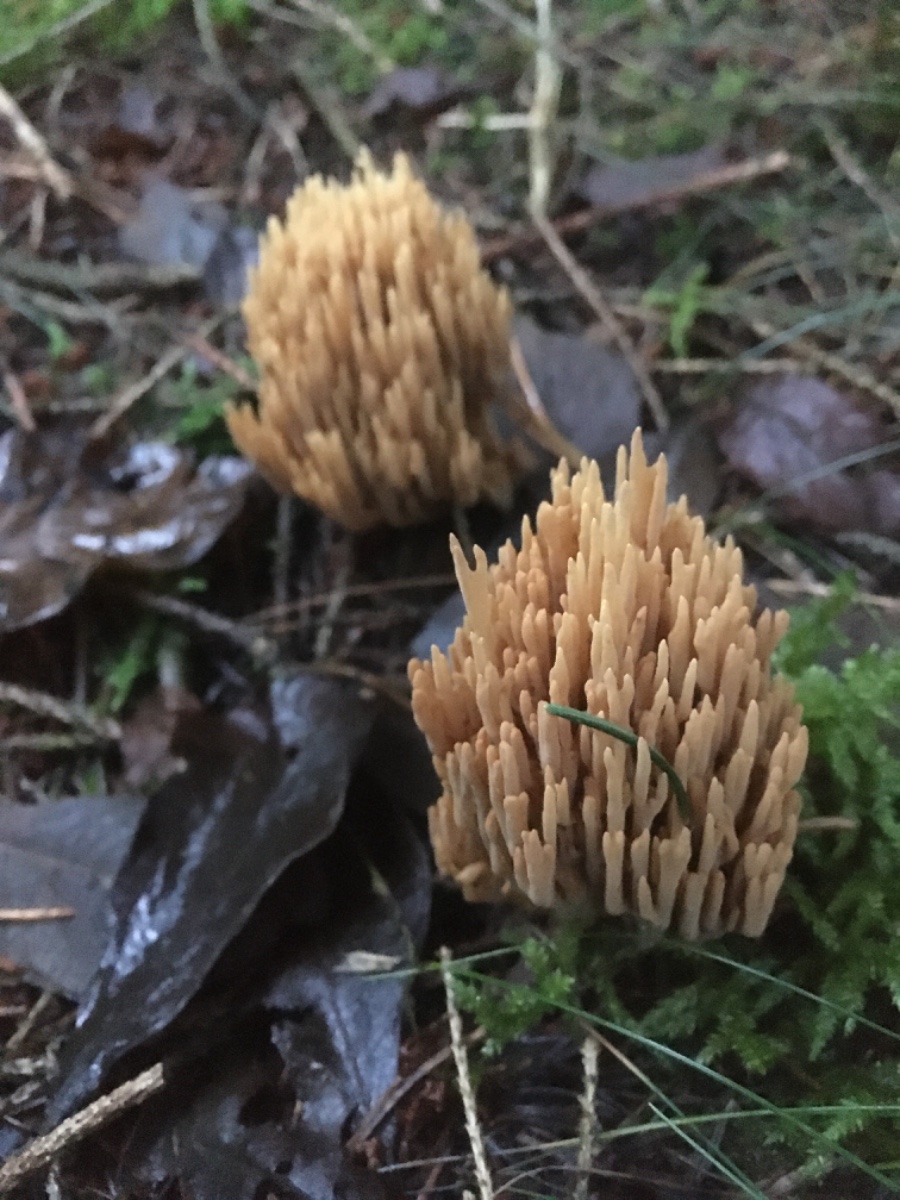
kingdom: Fungi
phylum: Basidiomycota
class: Agaricomycetes
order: Gomphales
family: Gomphaceae
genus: Phaeoclavulina
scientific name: Phaeoclavulina eumorpha
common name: gran-koralsvamp
